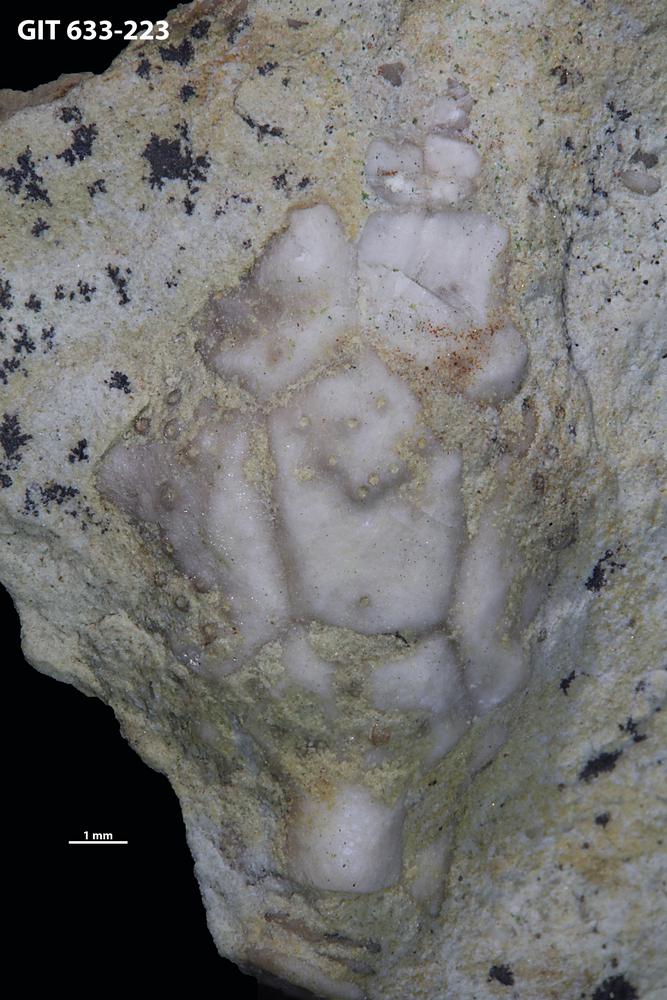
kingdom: Animalia
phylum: Echinodermata
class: Crinoidea
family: Hemicosmitidae
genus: Hemicosmites
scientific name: Hemicosmites
